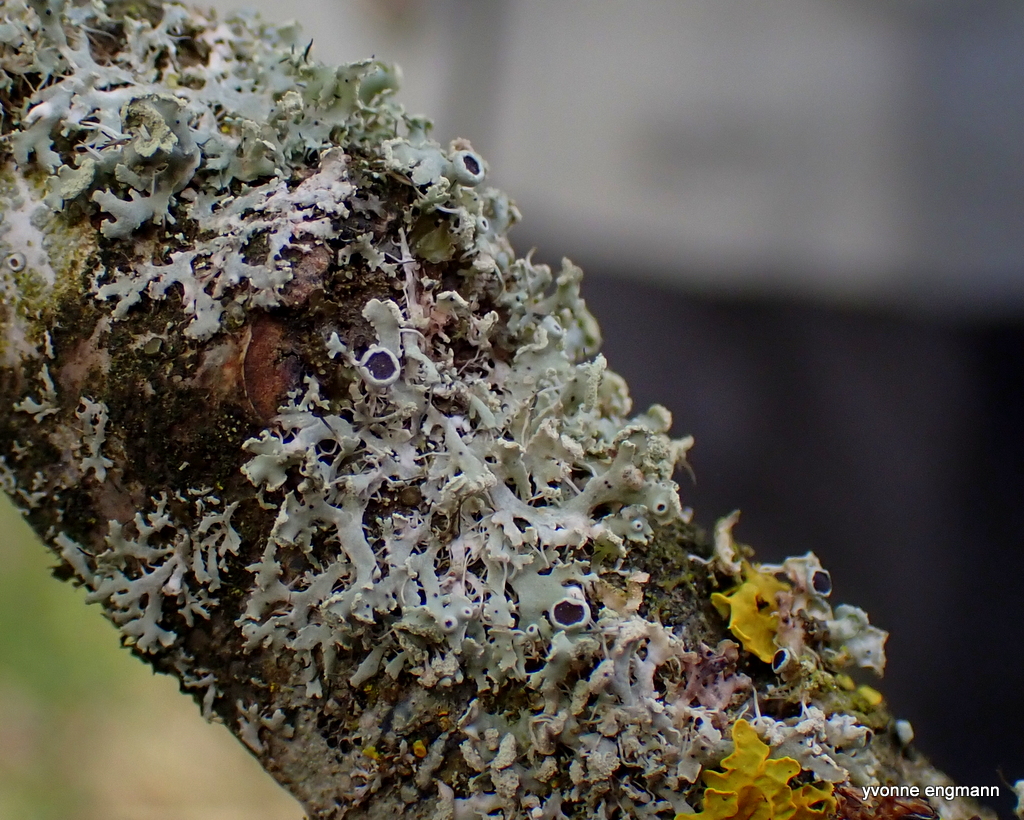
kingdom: Fungi
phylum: Ascomycota
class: Lecanoromycetes
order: Caliciales
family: Physciaceae
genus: Physcia
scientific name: Physcia tenella
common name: spæd rosetlav
